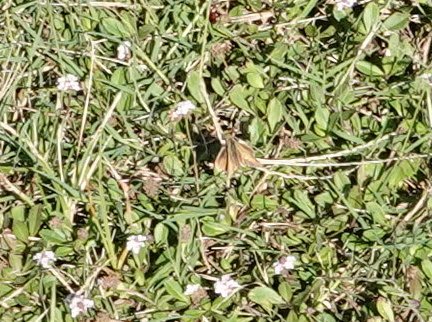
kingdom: Animalia
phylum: Arthropoda
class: Insecta
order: Lepidoptera
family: Hesperiidae
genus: Polites
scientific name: Polites vibex
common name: Whirlabout
